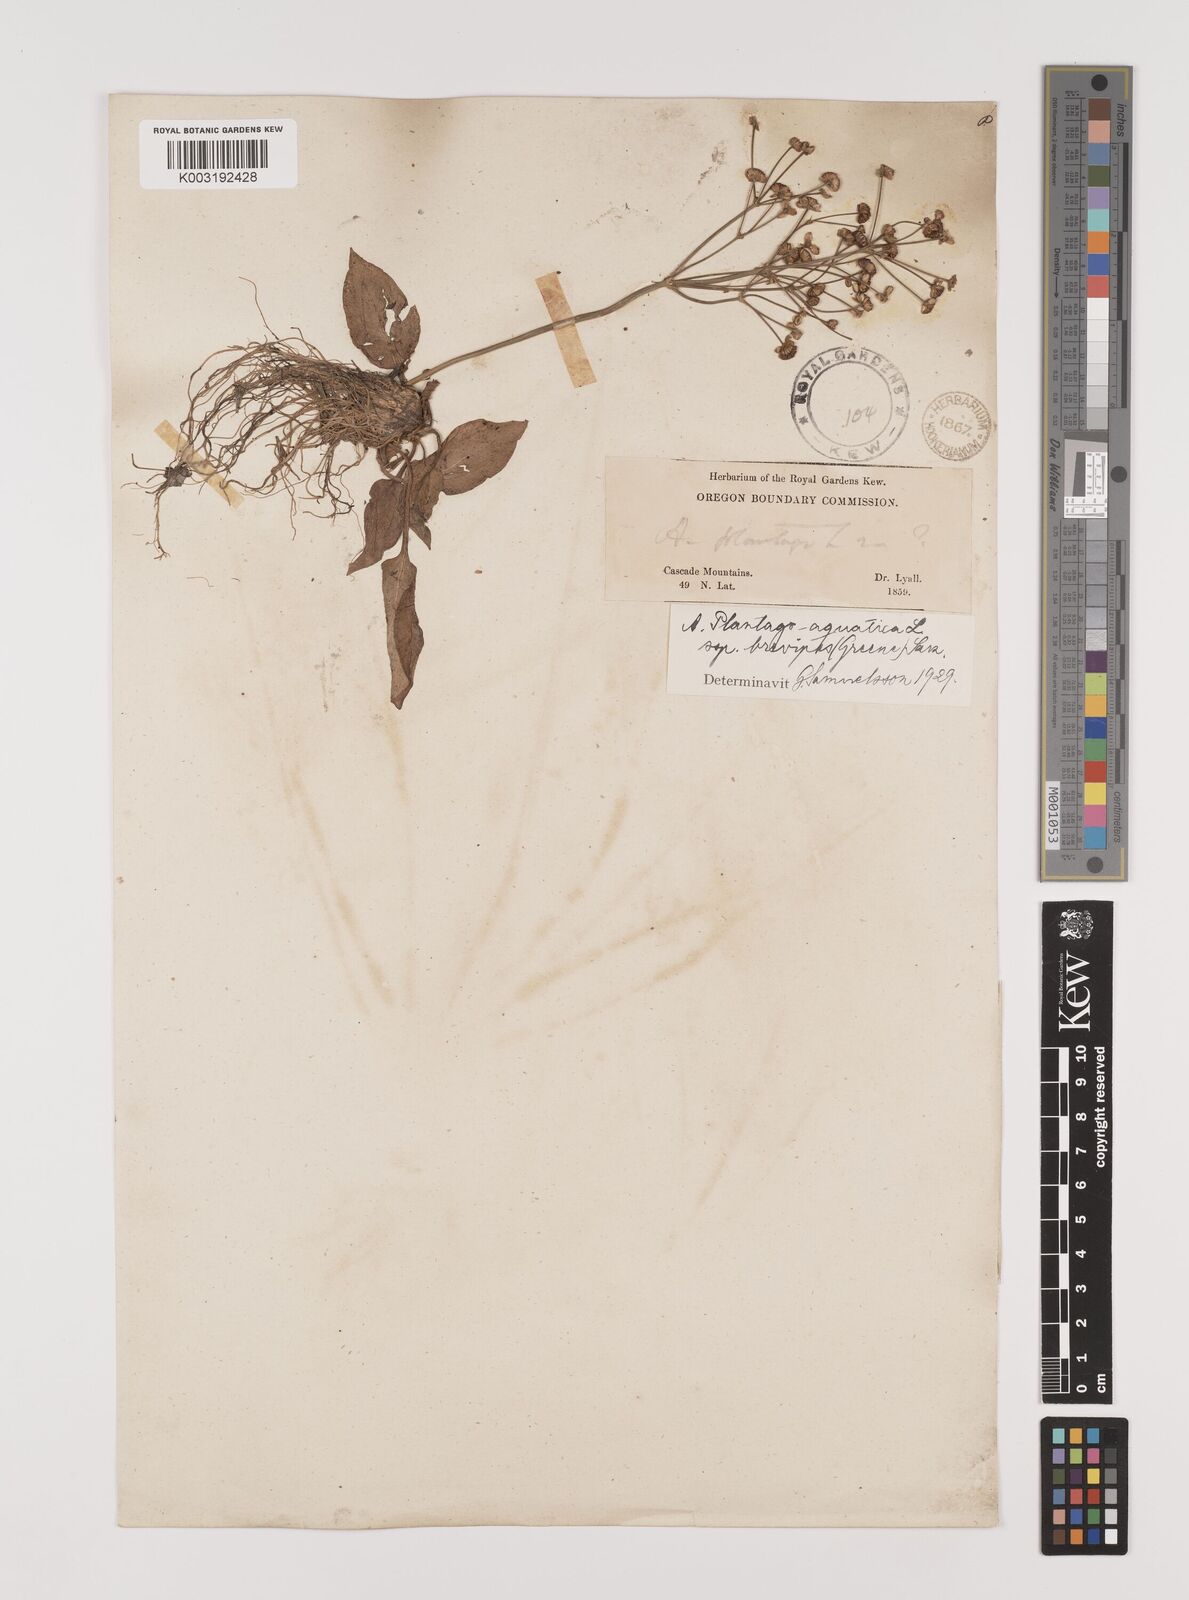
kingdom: Plantae
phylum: Tracheophyta
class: Liliopsida
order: Alismatales
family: Alismataceae
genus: Alisma
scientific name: Alisma triviale
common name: Northern water-plantain
